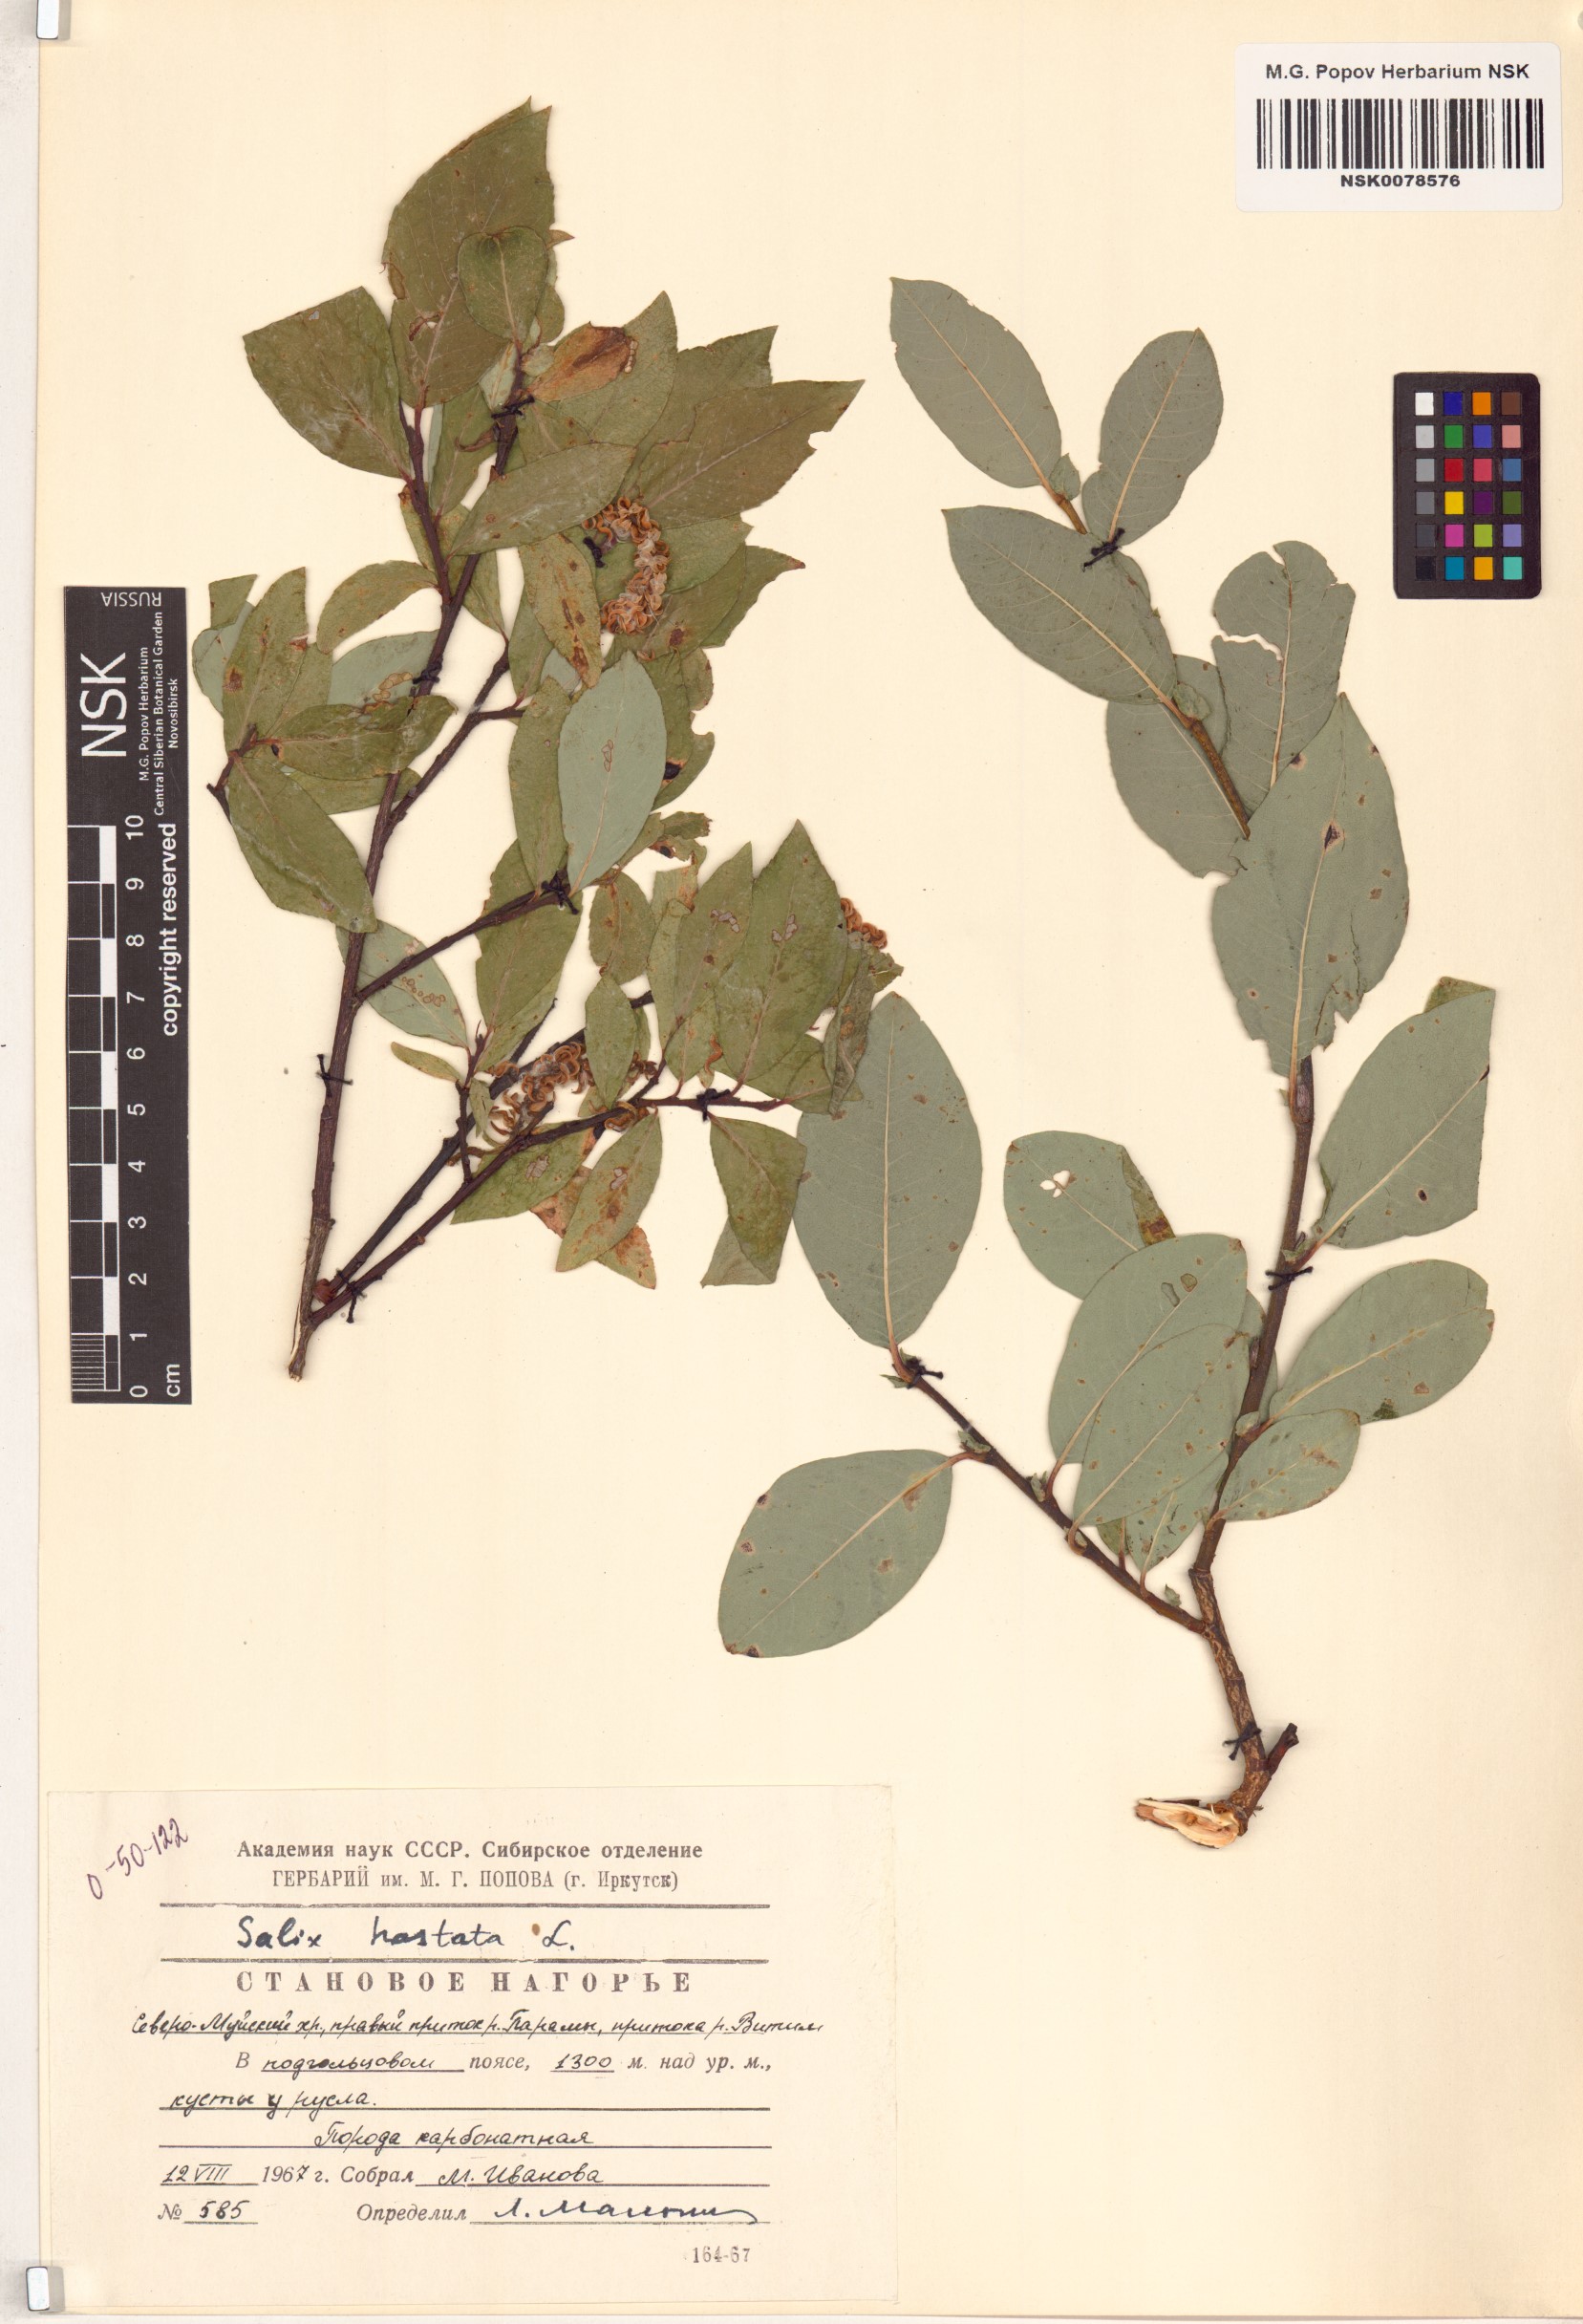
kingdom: Plantae
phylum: Tracheophyta
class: Magnoliopsida
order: Malpighiales
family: Salicaceae
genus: Salix
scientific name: Salix hastata
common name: Halberd willow
